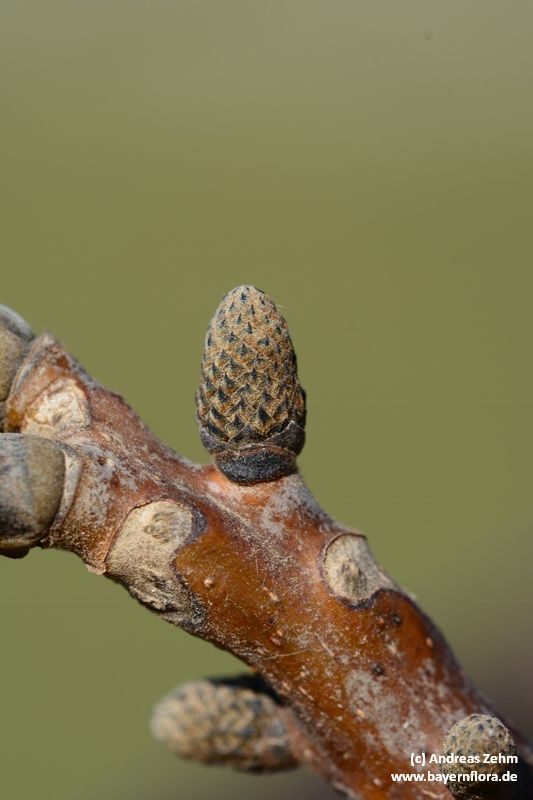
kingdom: Plantae
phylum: Tracheophyta
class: Magnoliopsida
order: Fagales
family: Juglandaceae
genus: Juglans
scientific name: Juglans regia
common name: Walnut
